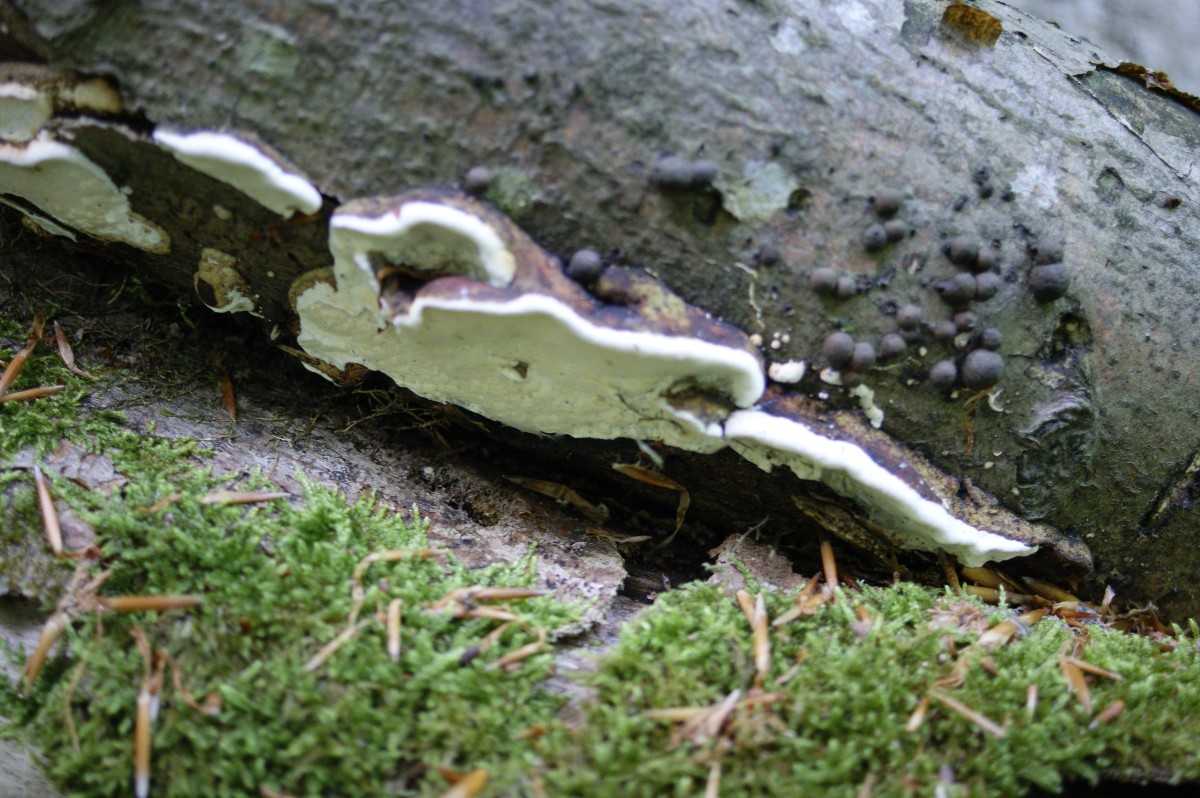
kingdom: Fungi
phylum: Basidiomycota
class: Agaricomycetes
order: Polyporales
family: Incrustoporiaceae
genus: Skeletocutis
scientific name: Skeletocutis nemoralis
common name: stor krystalporesvamp
